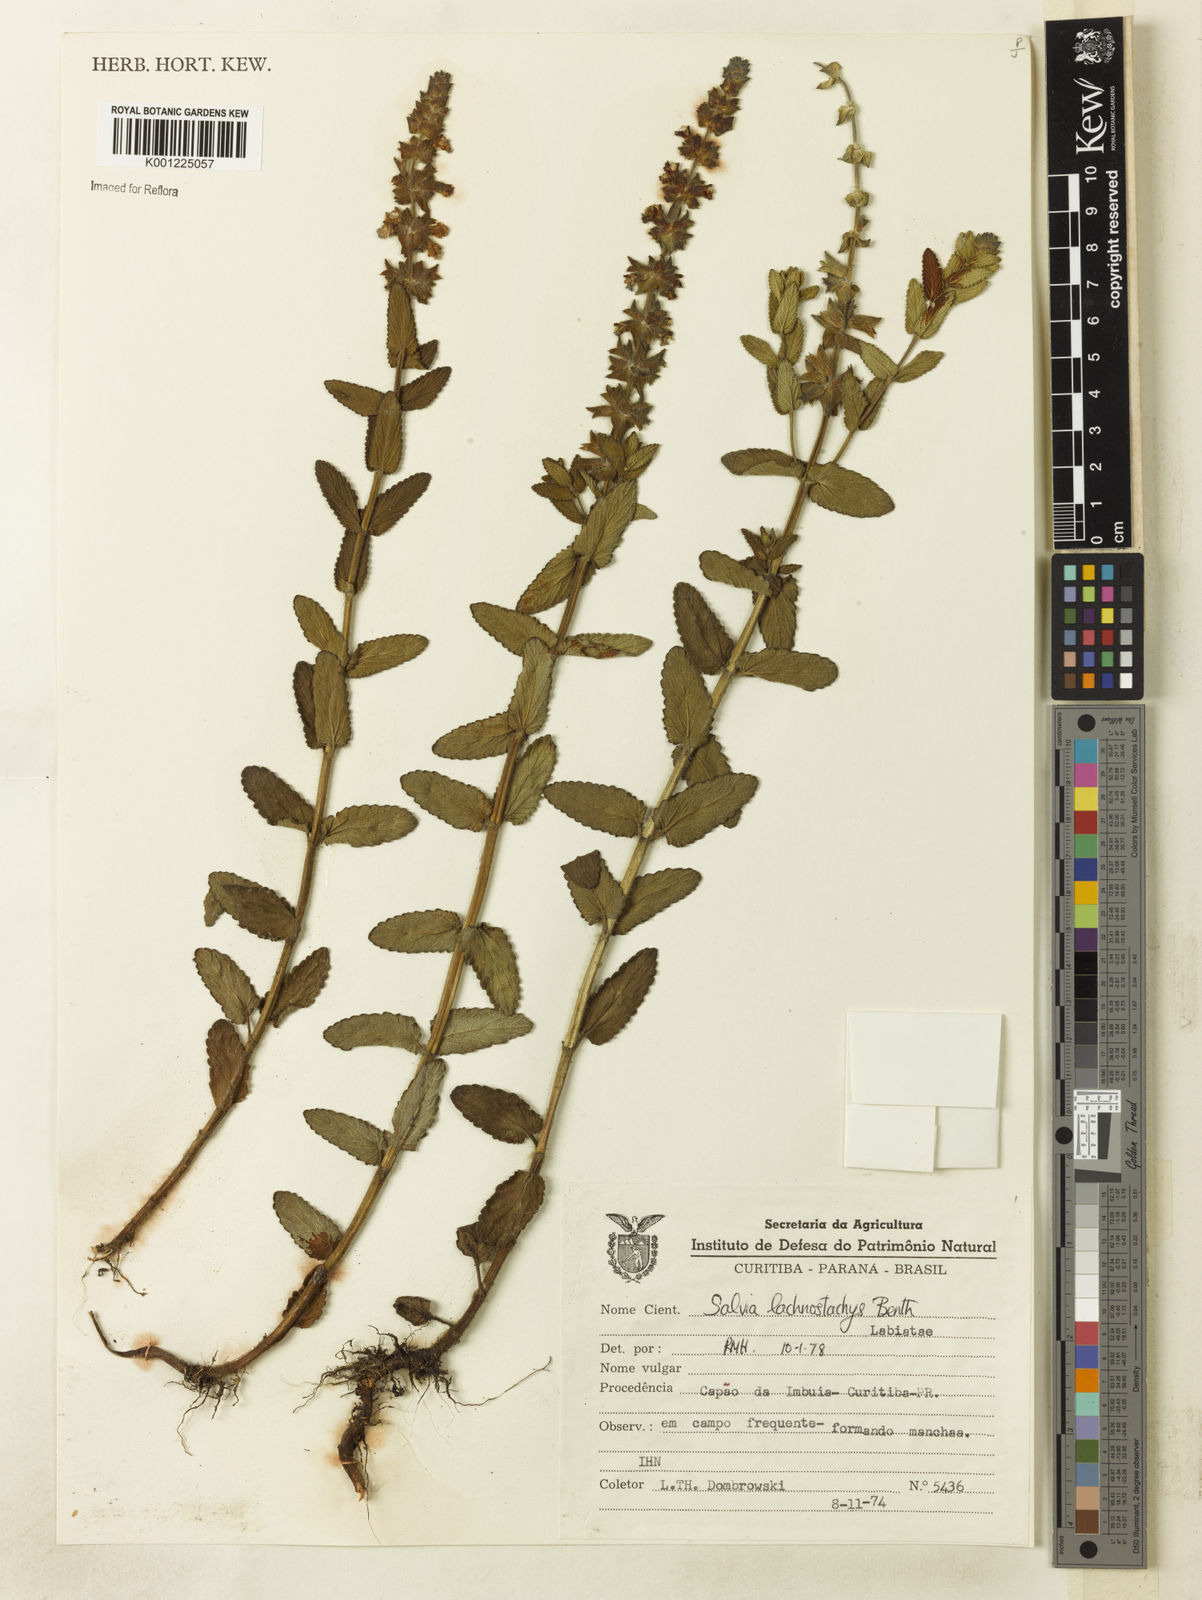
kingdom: Plantae
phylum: Tracheophyta
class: Magnoliopsida
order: Lamiales
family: Lamiaceae
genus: Salvia
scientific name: Salvia lachnostachys
